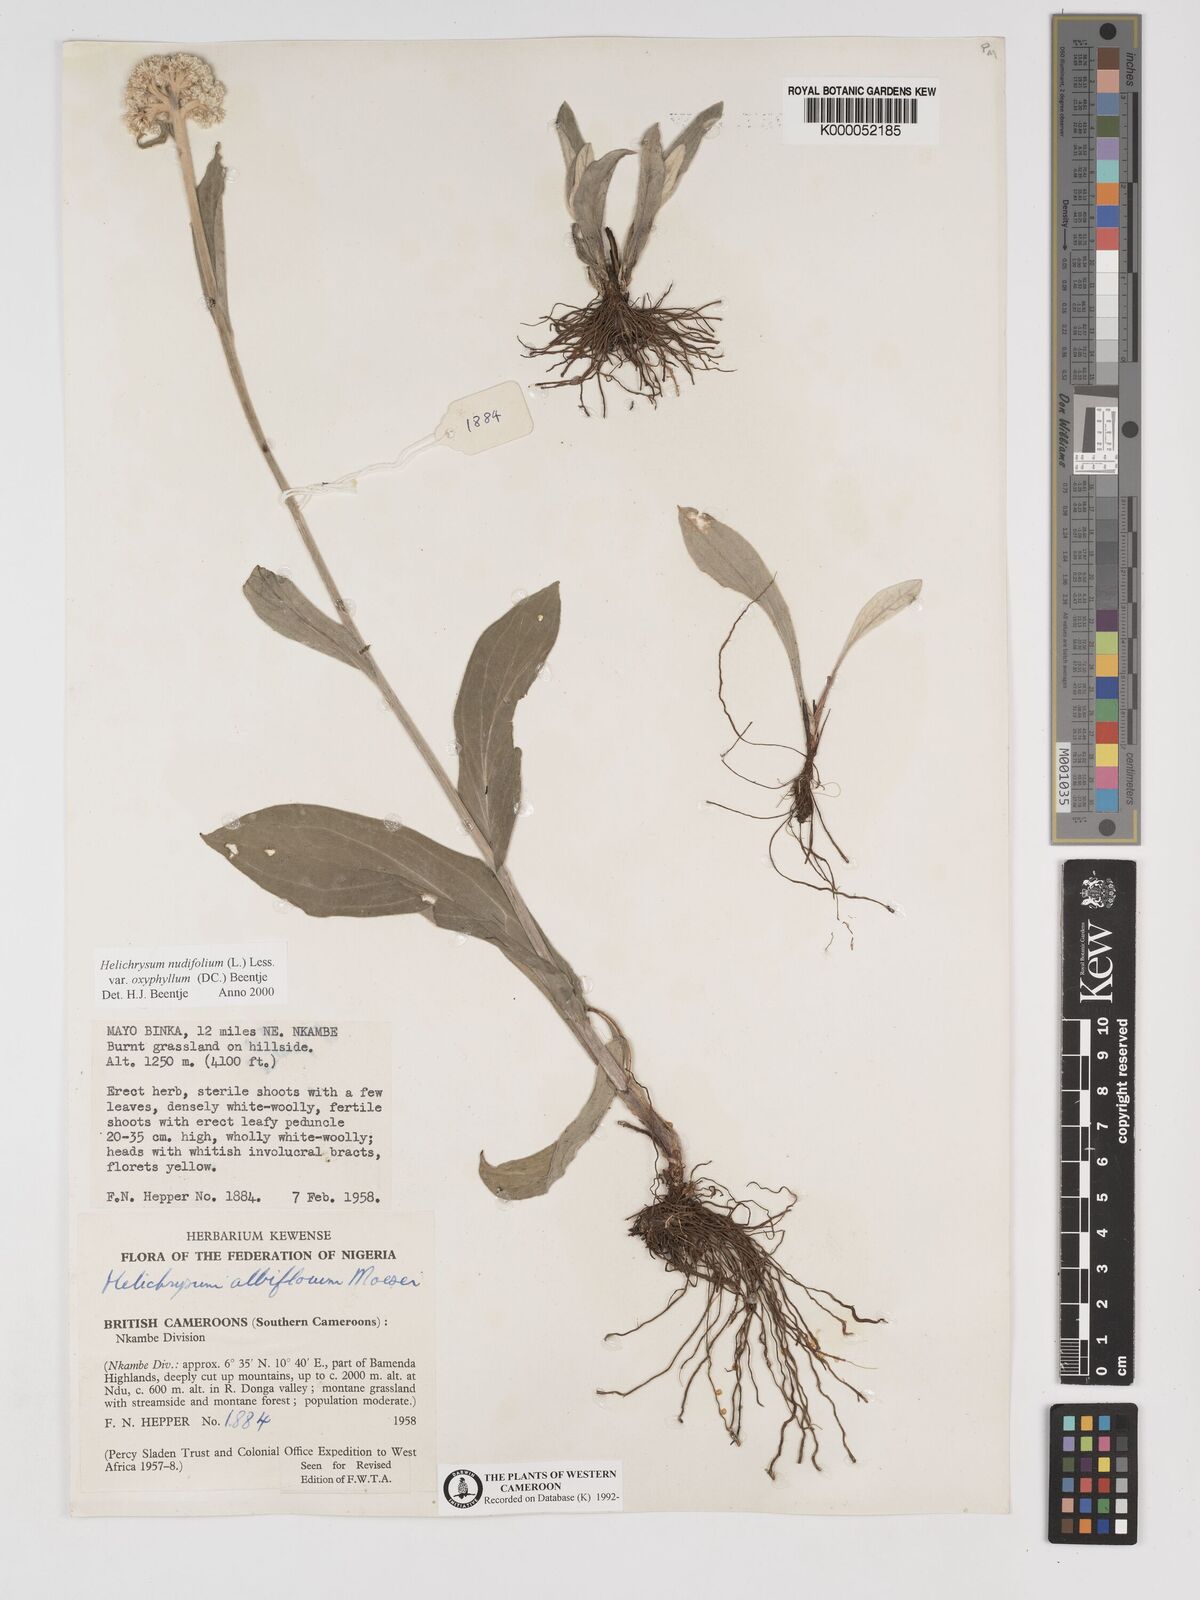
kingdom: Plantae
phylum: Tracheophyta
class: Magnoliopsida
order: Asterales
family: Asteraceae
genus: Helichrysum
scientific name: Helichrysum nudifolium
